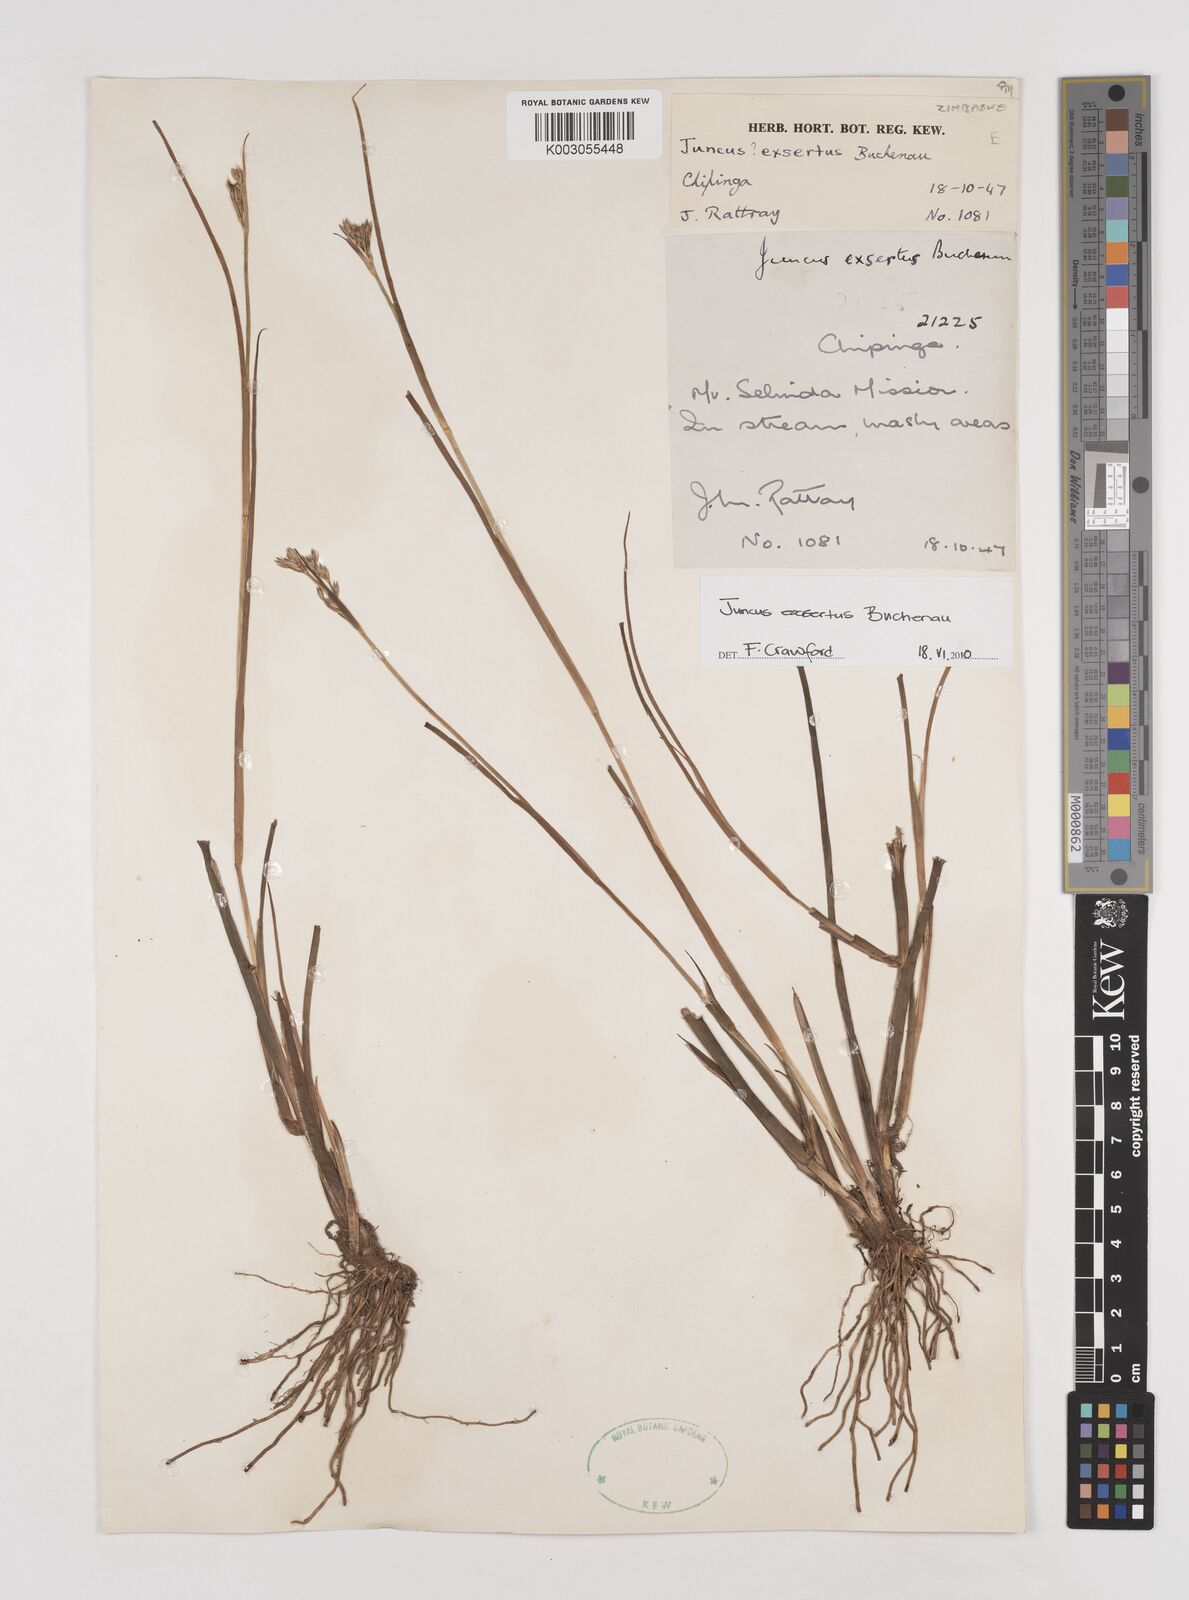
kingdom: Plantae
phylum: Tracheophyta
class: Liliopsida
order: Poales
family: Juncaceae
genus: Juncus
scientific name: Juncus exsertus
